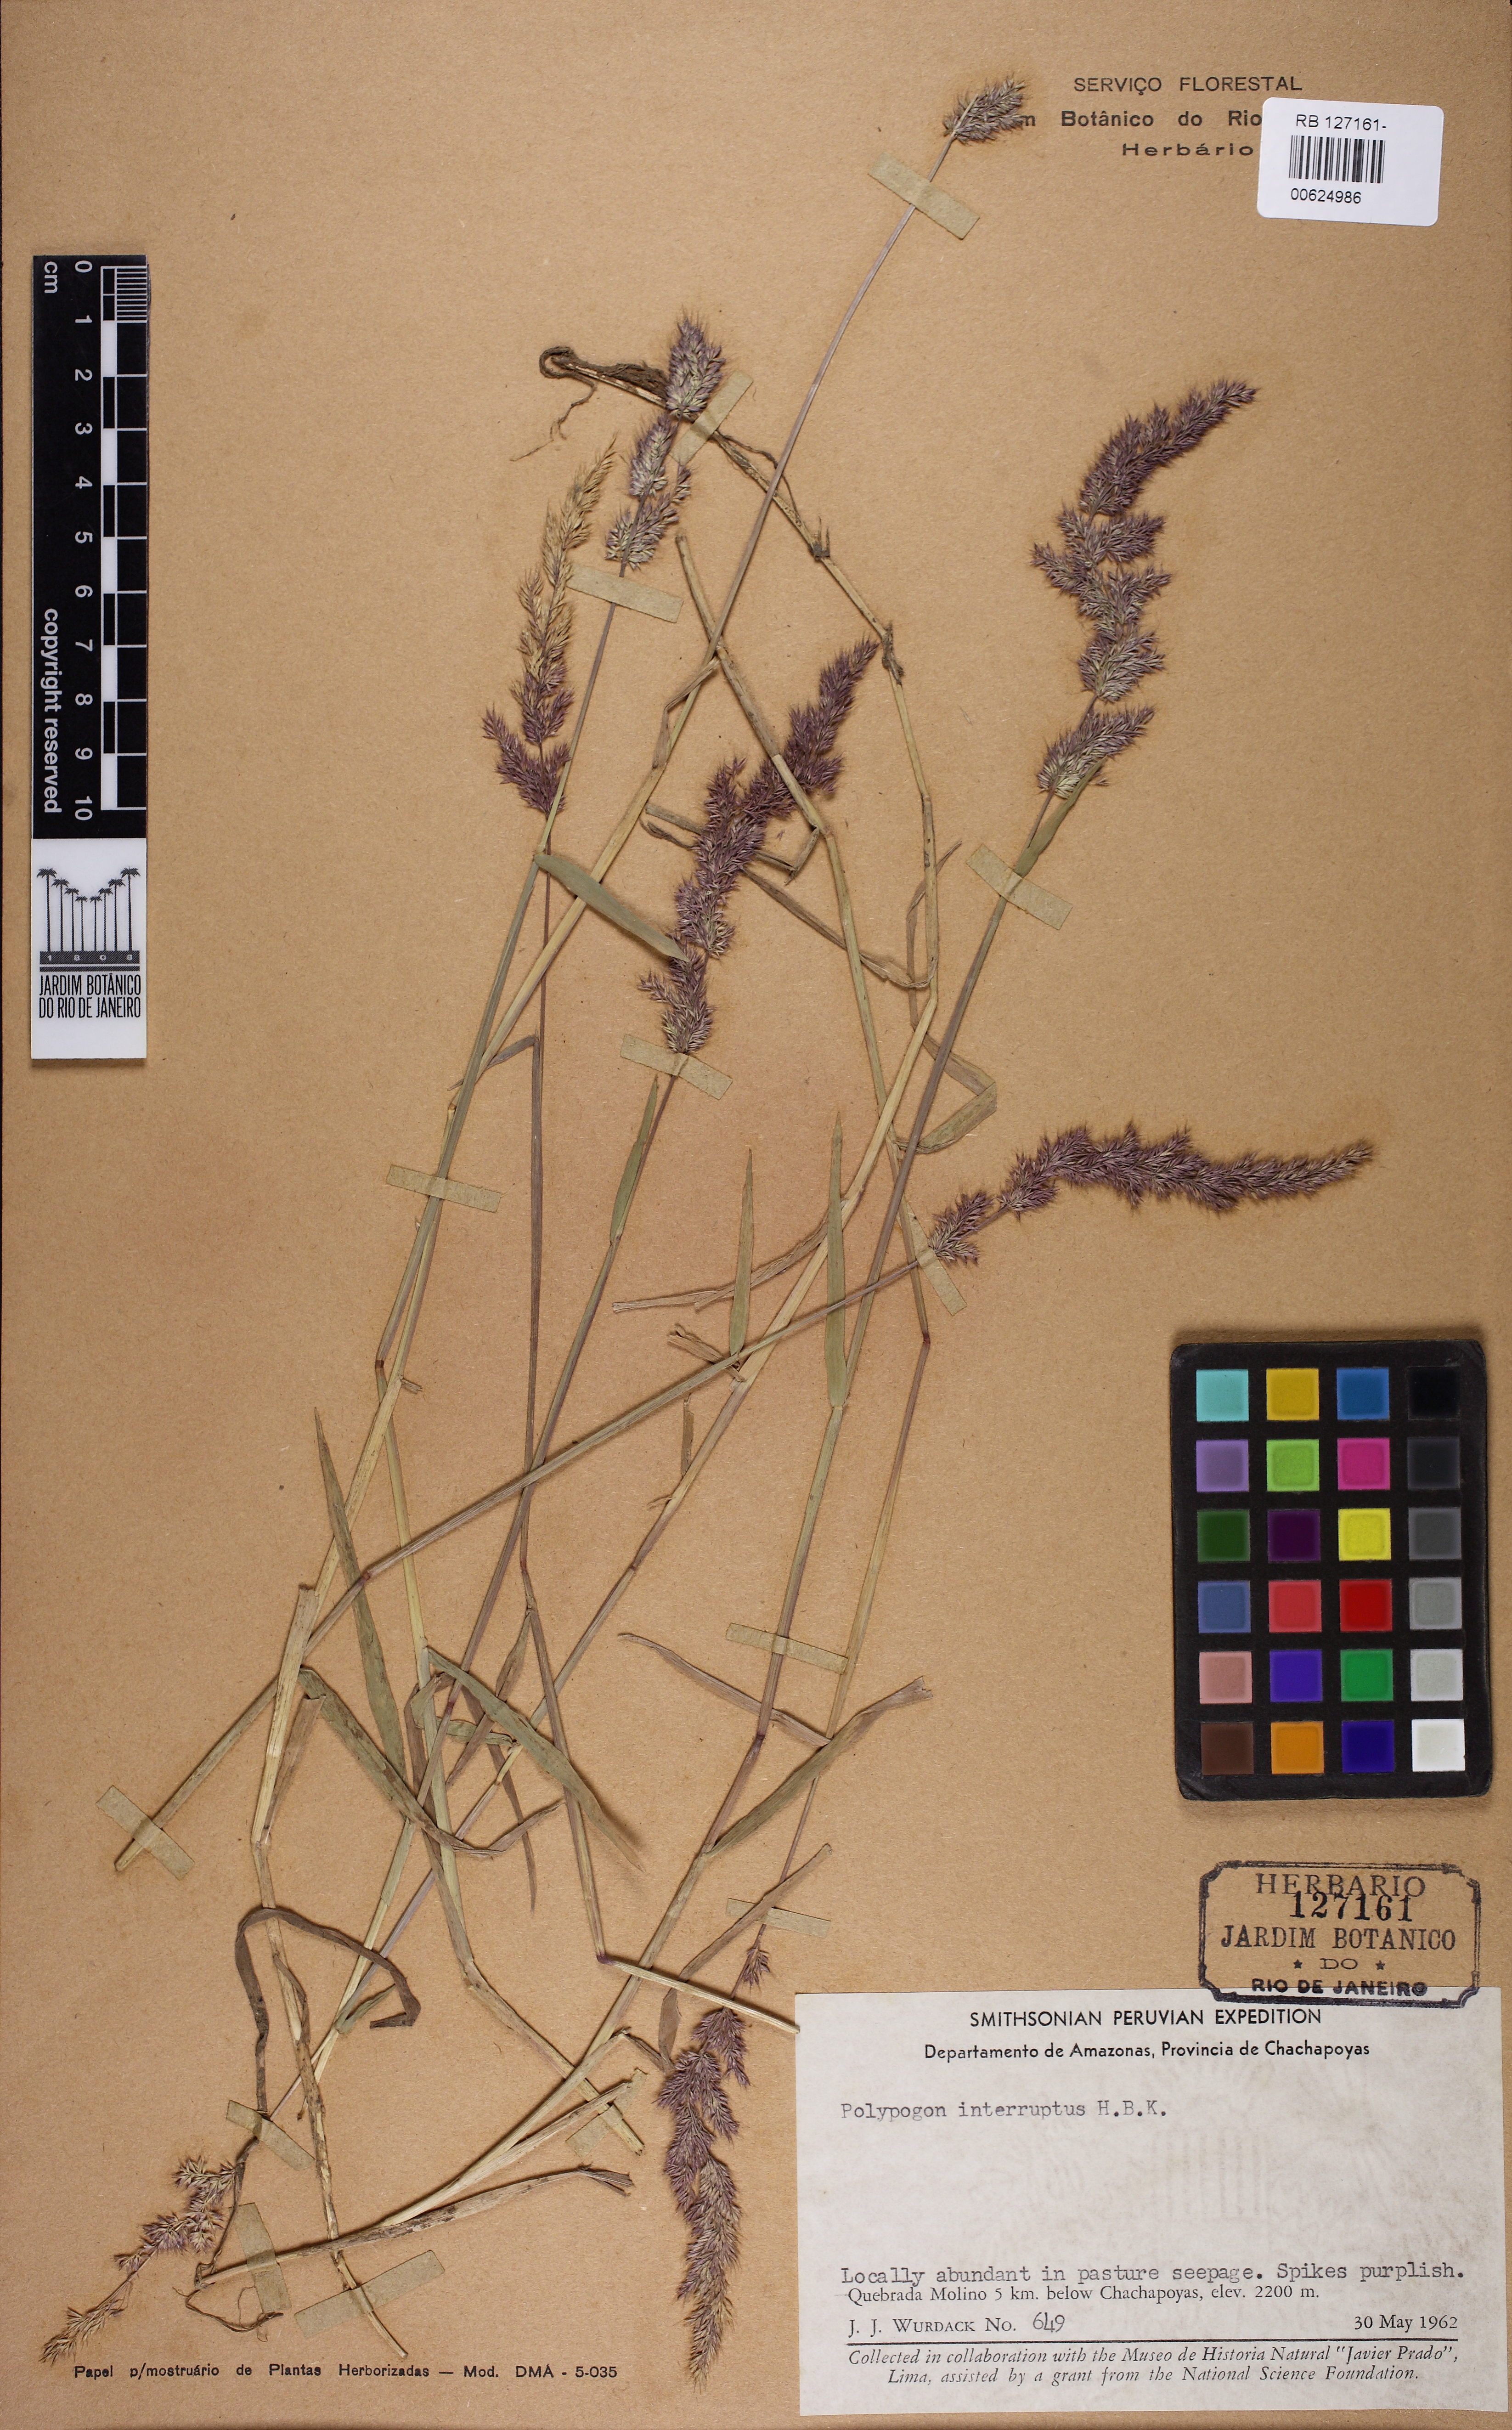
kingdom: Plantae
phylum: Tracheophyta
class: Liliopsida
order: Poales
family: Poaceae
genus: Polypogon
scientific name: Polypogon interruptus
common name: Ditch polypogon
